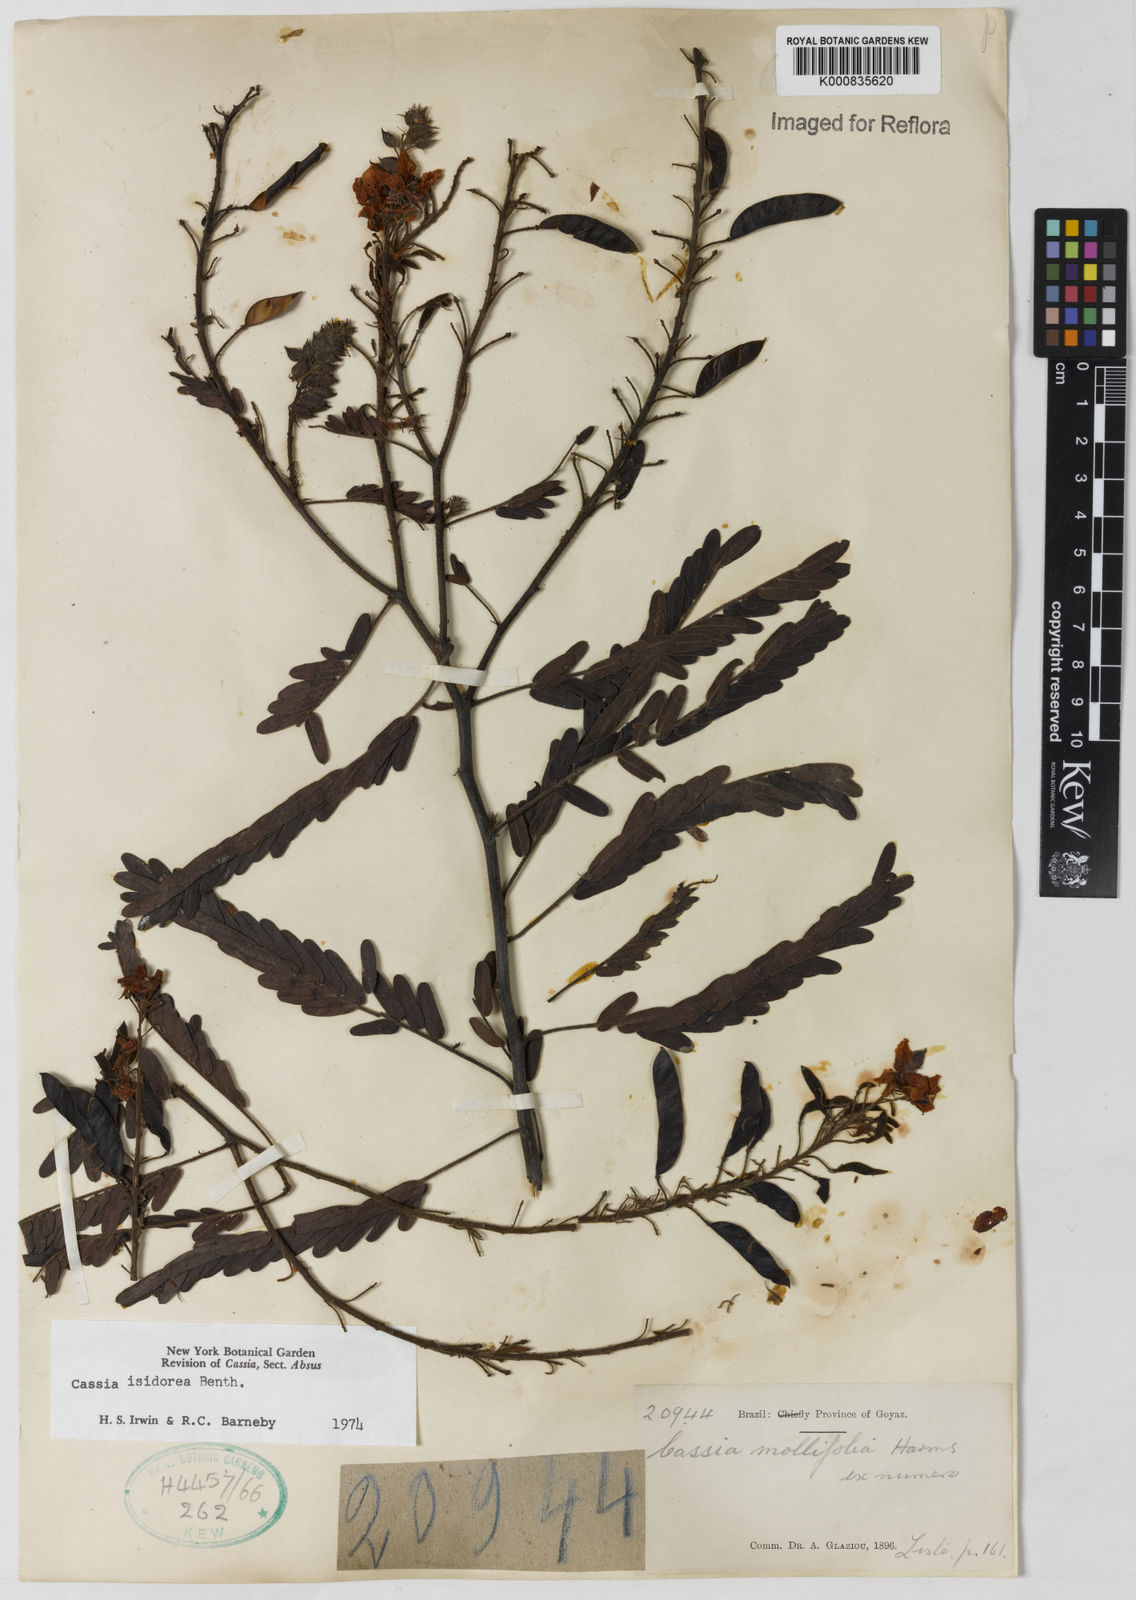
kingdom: Plantae
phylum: Tracheophyta
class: Magnoliopsida
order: Fabales
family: Fabaceae
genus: Chamaecrista
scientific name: Chamaecrista isidorea
